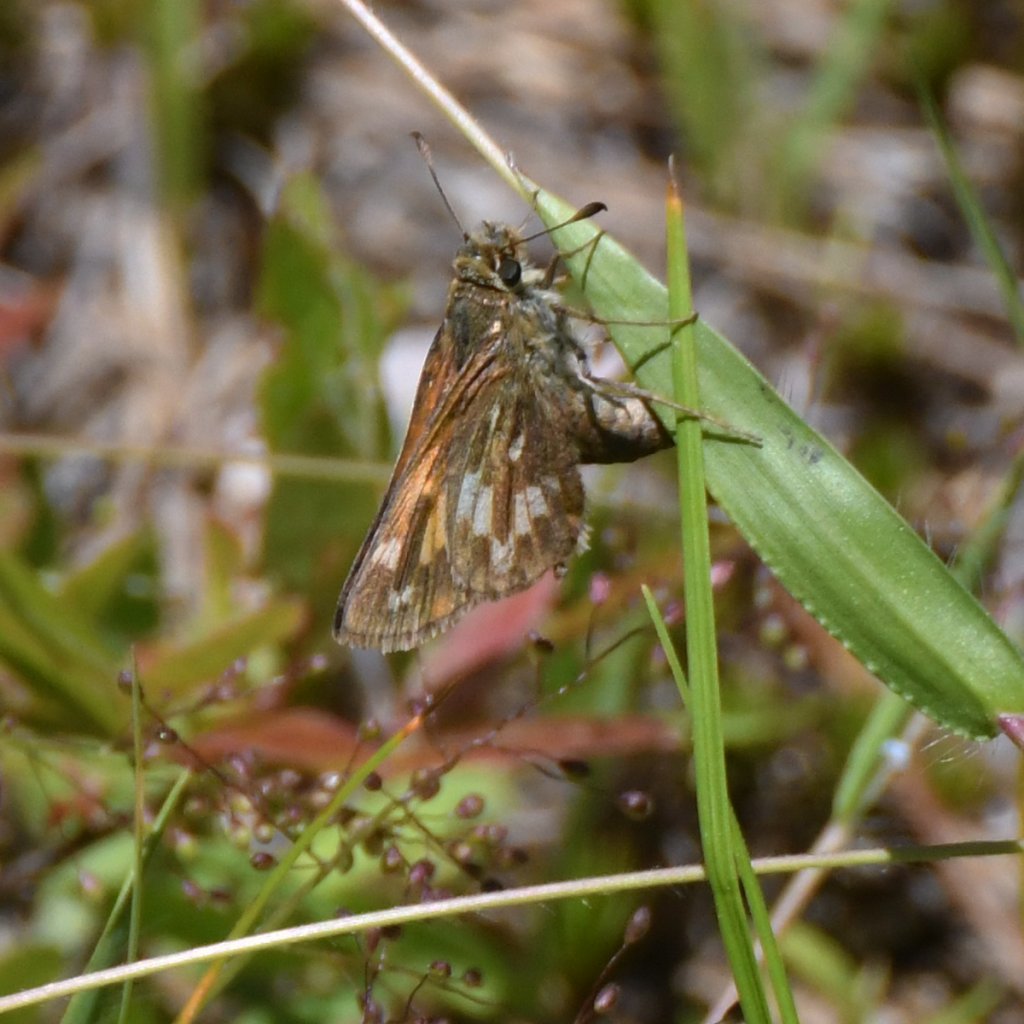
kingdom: Animalia
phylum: Arthropoda
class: Insecta
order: Lepidoptera
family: Hesperiidae
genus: Hesperia
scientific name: Hesperia sassacus
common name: Sassacus Skipper
